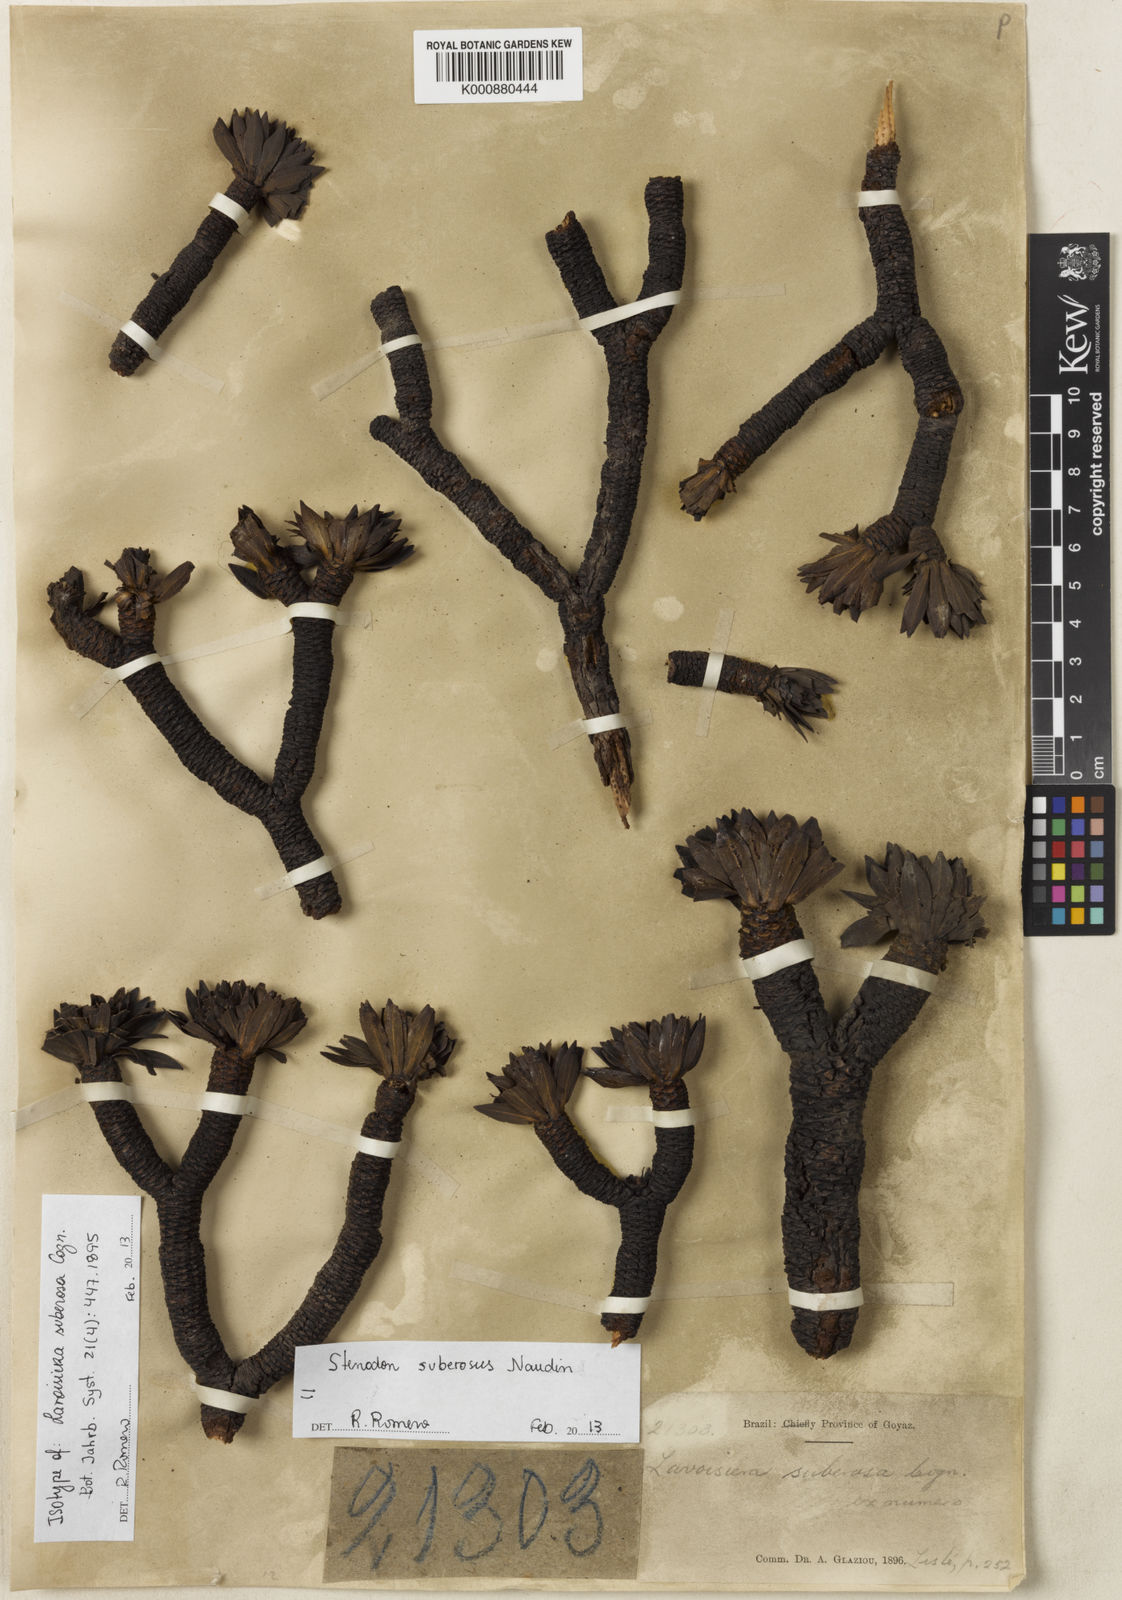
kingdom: Plantae
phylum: Tracheophyta
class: Magnoliopsida
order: Myrtales
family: Melastomataceae
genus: Microlicia
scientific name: Microlicia suberosa
